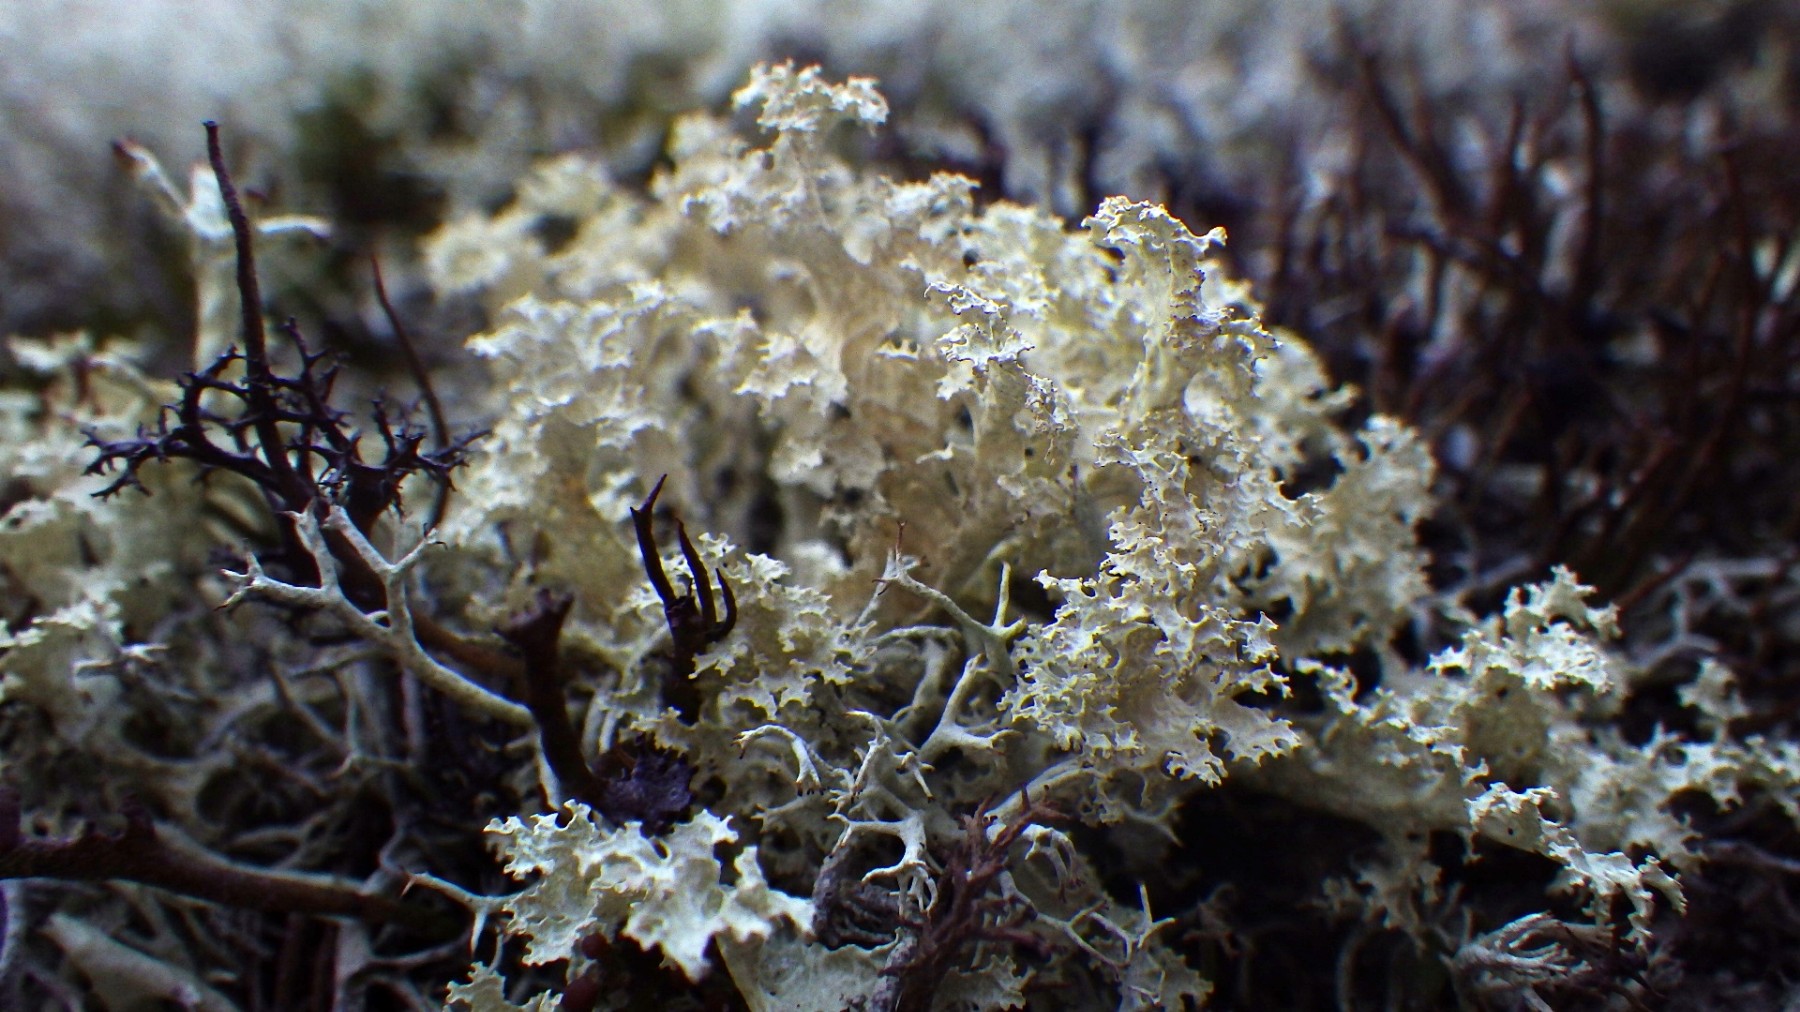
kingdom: Fungi
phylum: Ascomycota
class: Lecanoromycetes
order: Lecanorales
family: Parmeliaceae
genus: Nephromopsis
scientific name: Nephromopsis nivalis
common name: sne-kruslav
